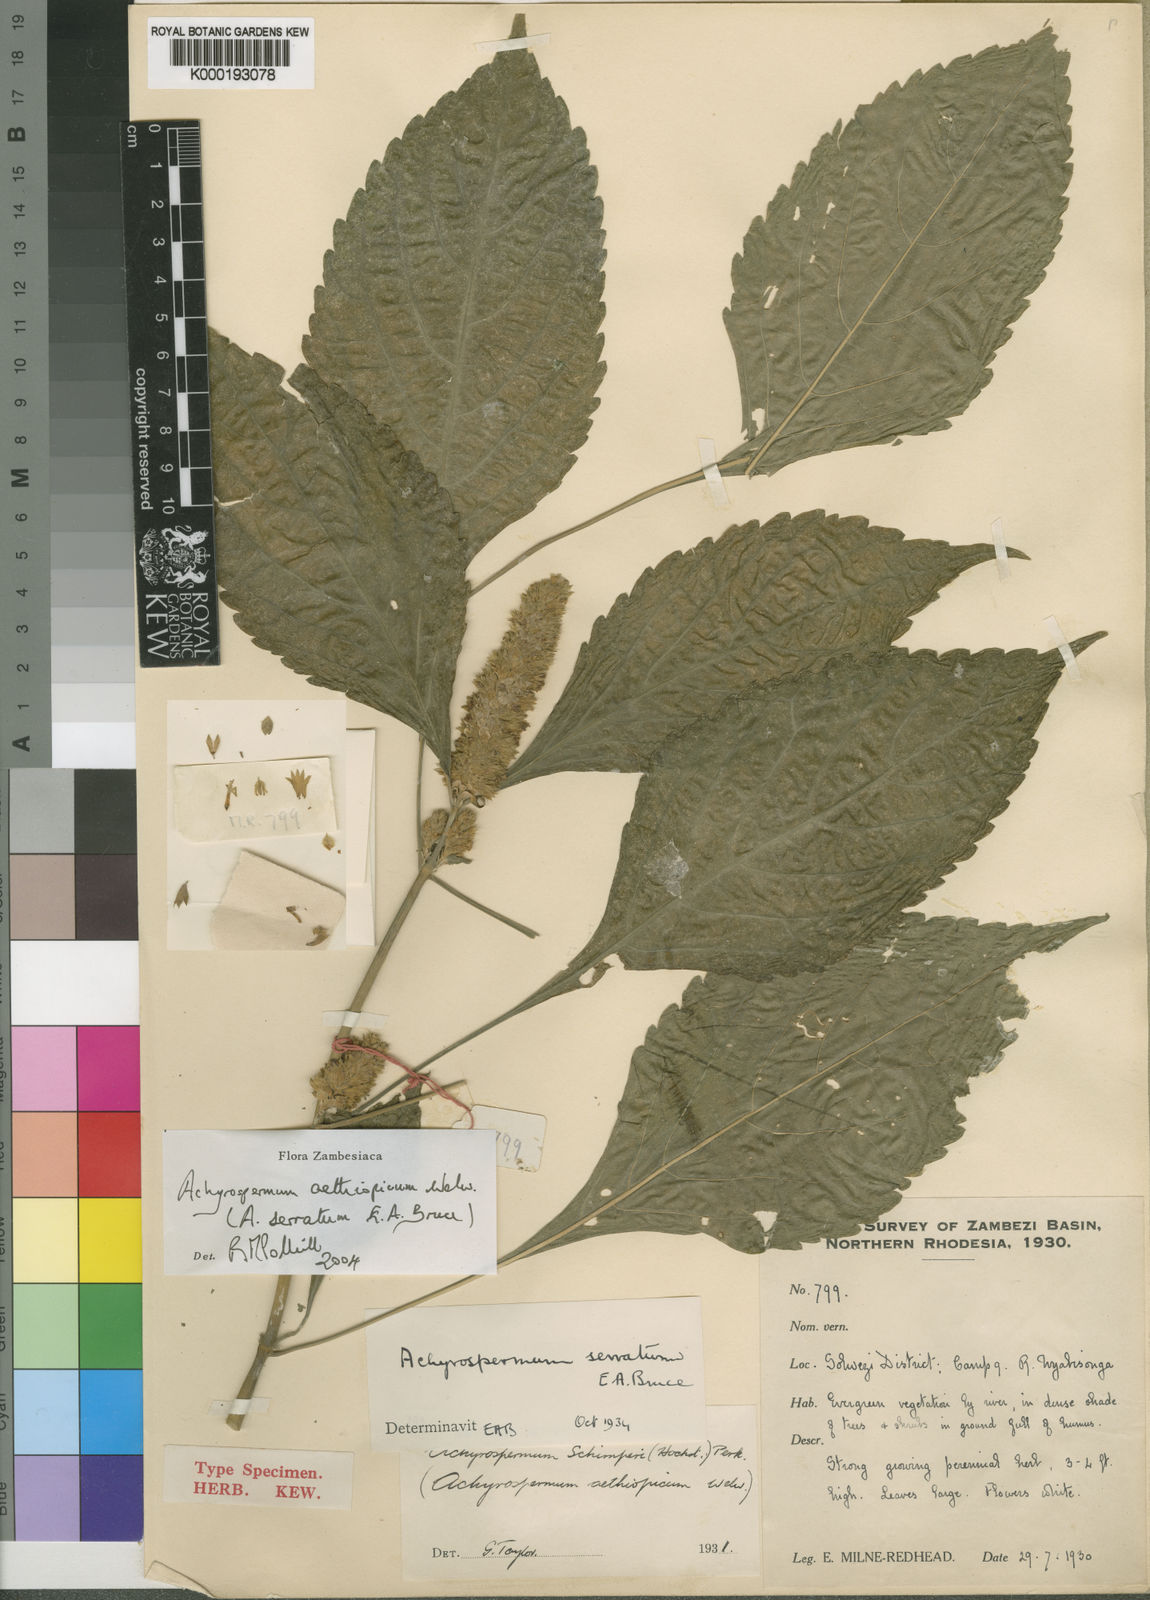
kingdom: Plantae
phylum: Tracheophyta
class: Magnoliopsida
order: Lamiales
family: Lamiaceae
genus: Achyrospermum
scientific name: Achyrospermum aethiopicum
